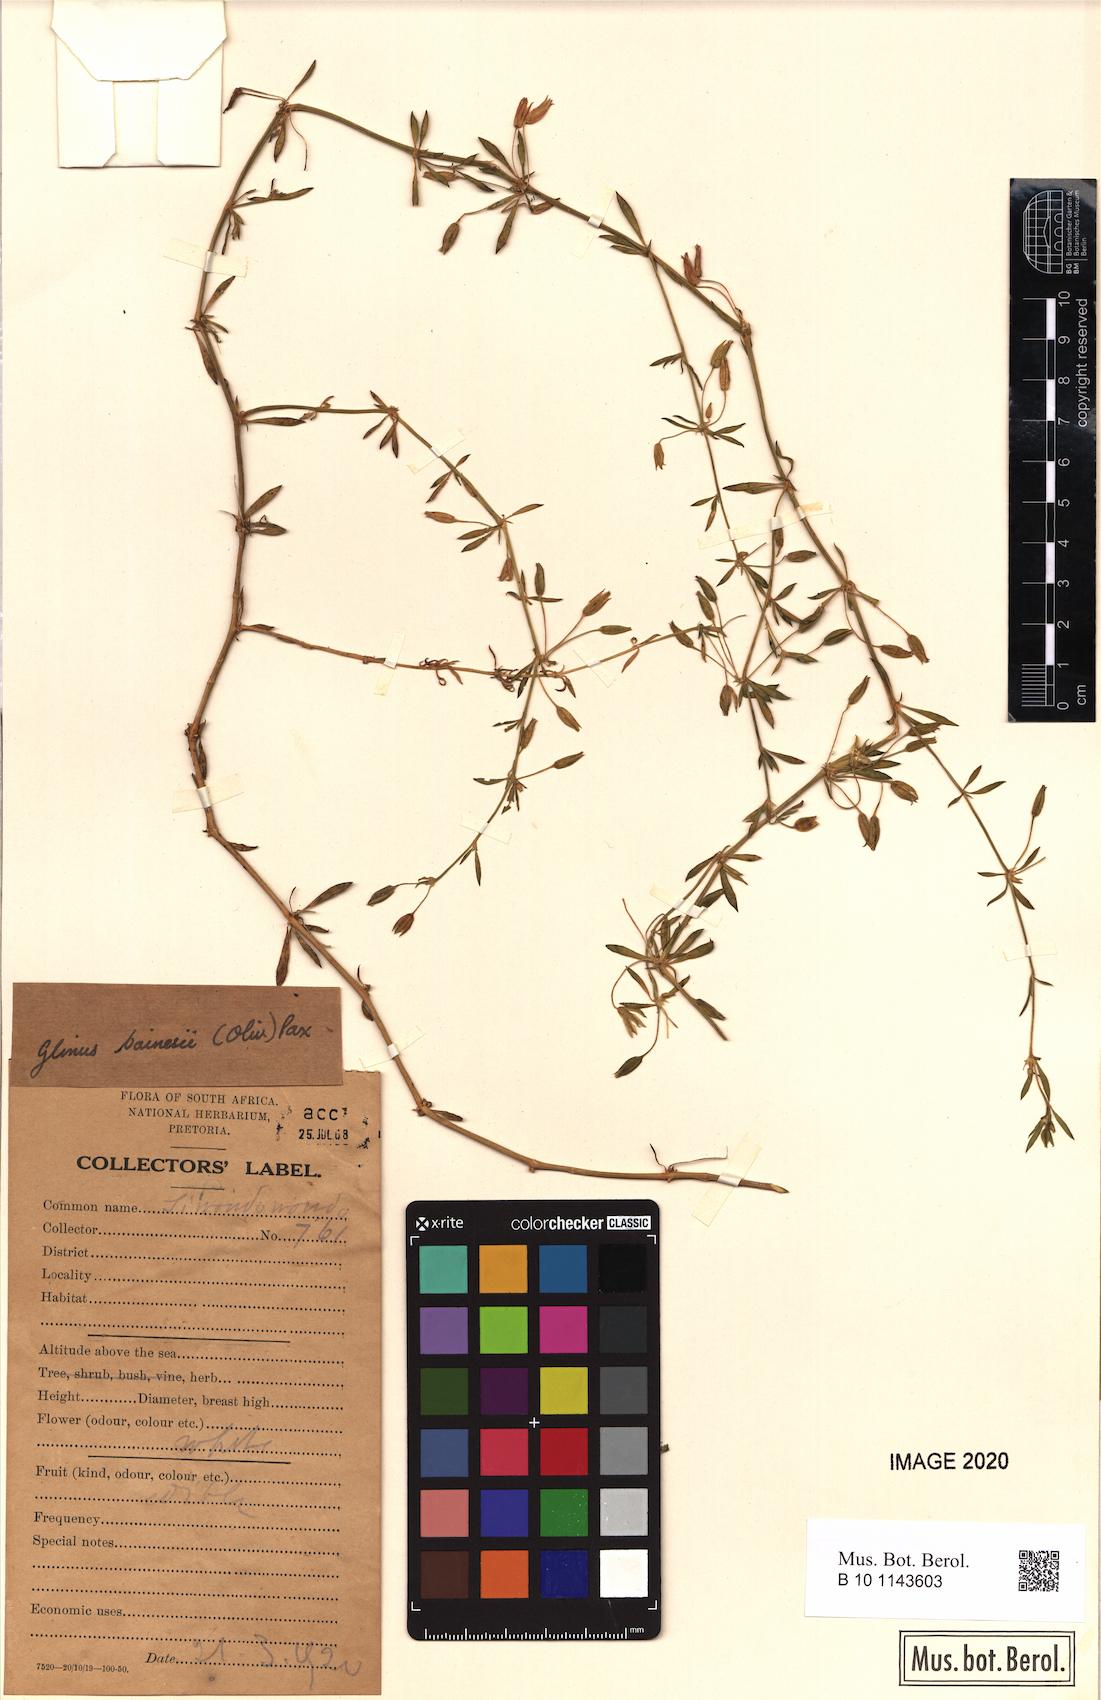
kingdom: Plantae
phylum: Tracheophyta
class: Magnoliopsida
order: Caryophyllales
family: Molluginaceae
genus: Glinus
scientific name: Glinus bainesii
